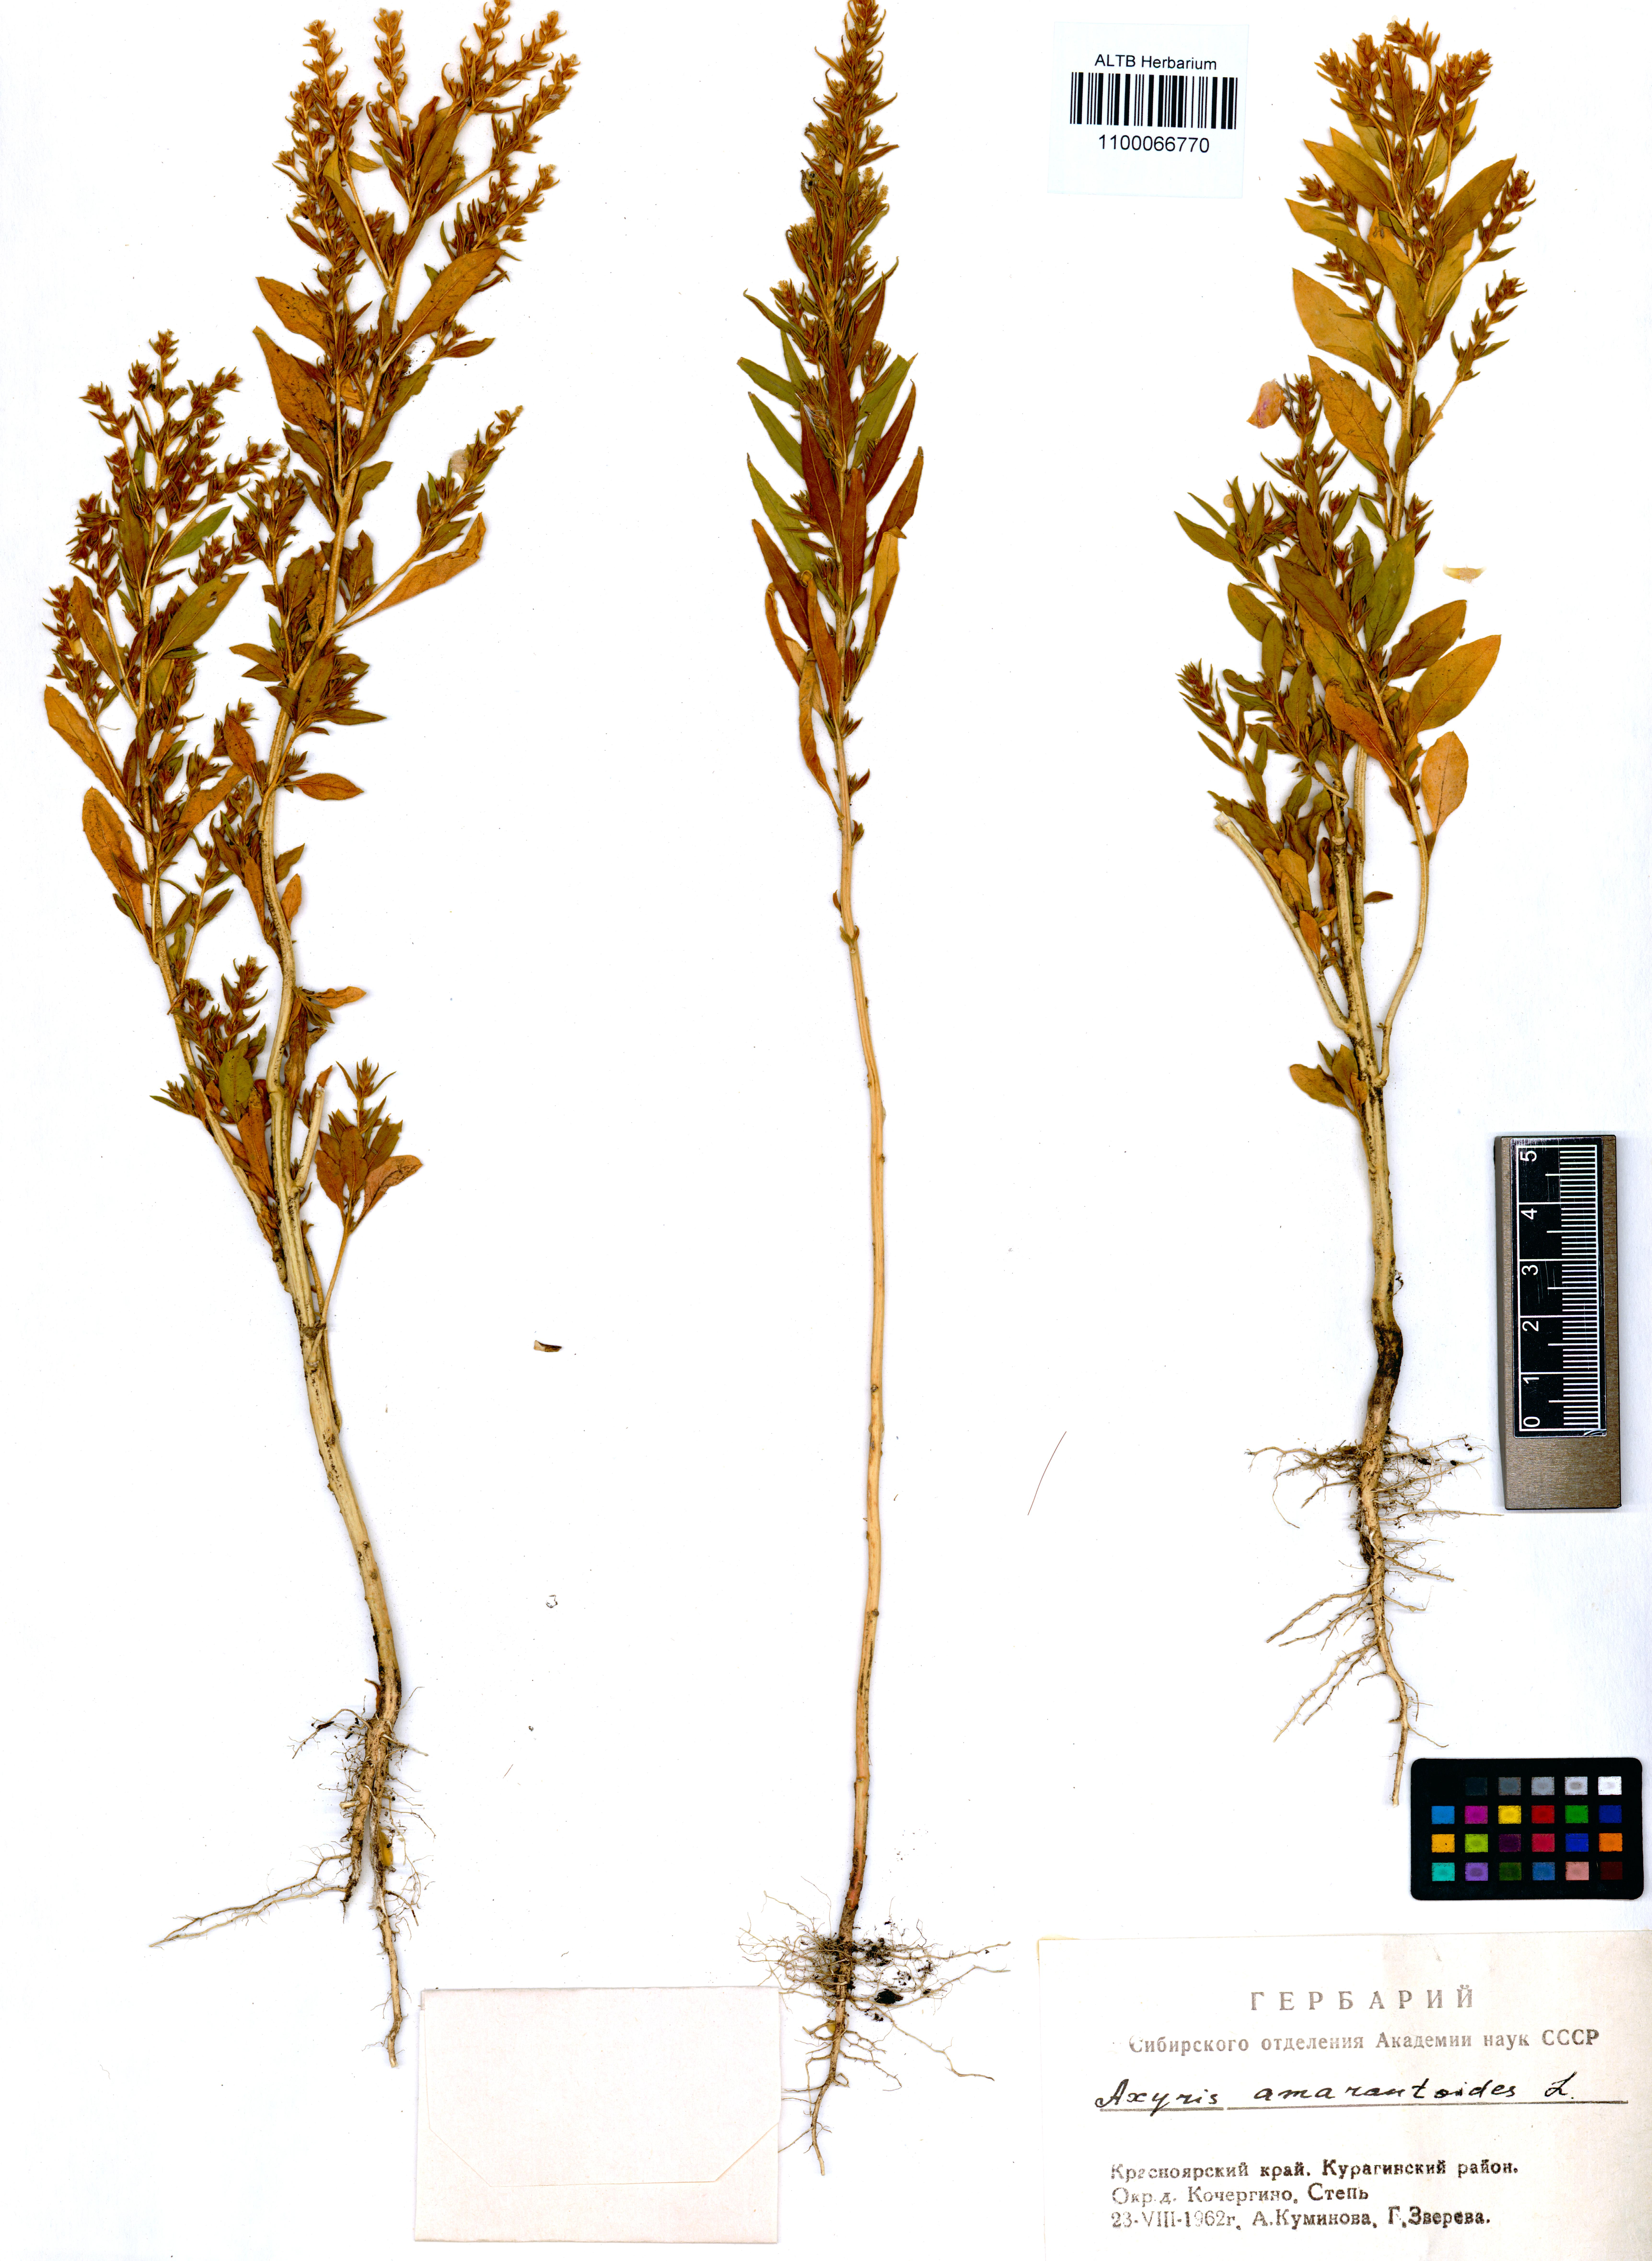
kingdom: Plantae
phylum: Tracheophyta
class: Magnoliopsida
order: Caryophyllales
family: Amaranthaceae
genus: Axyris
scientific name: Axyris amaranthoides
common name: Russian pigweed
